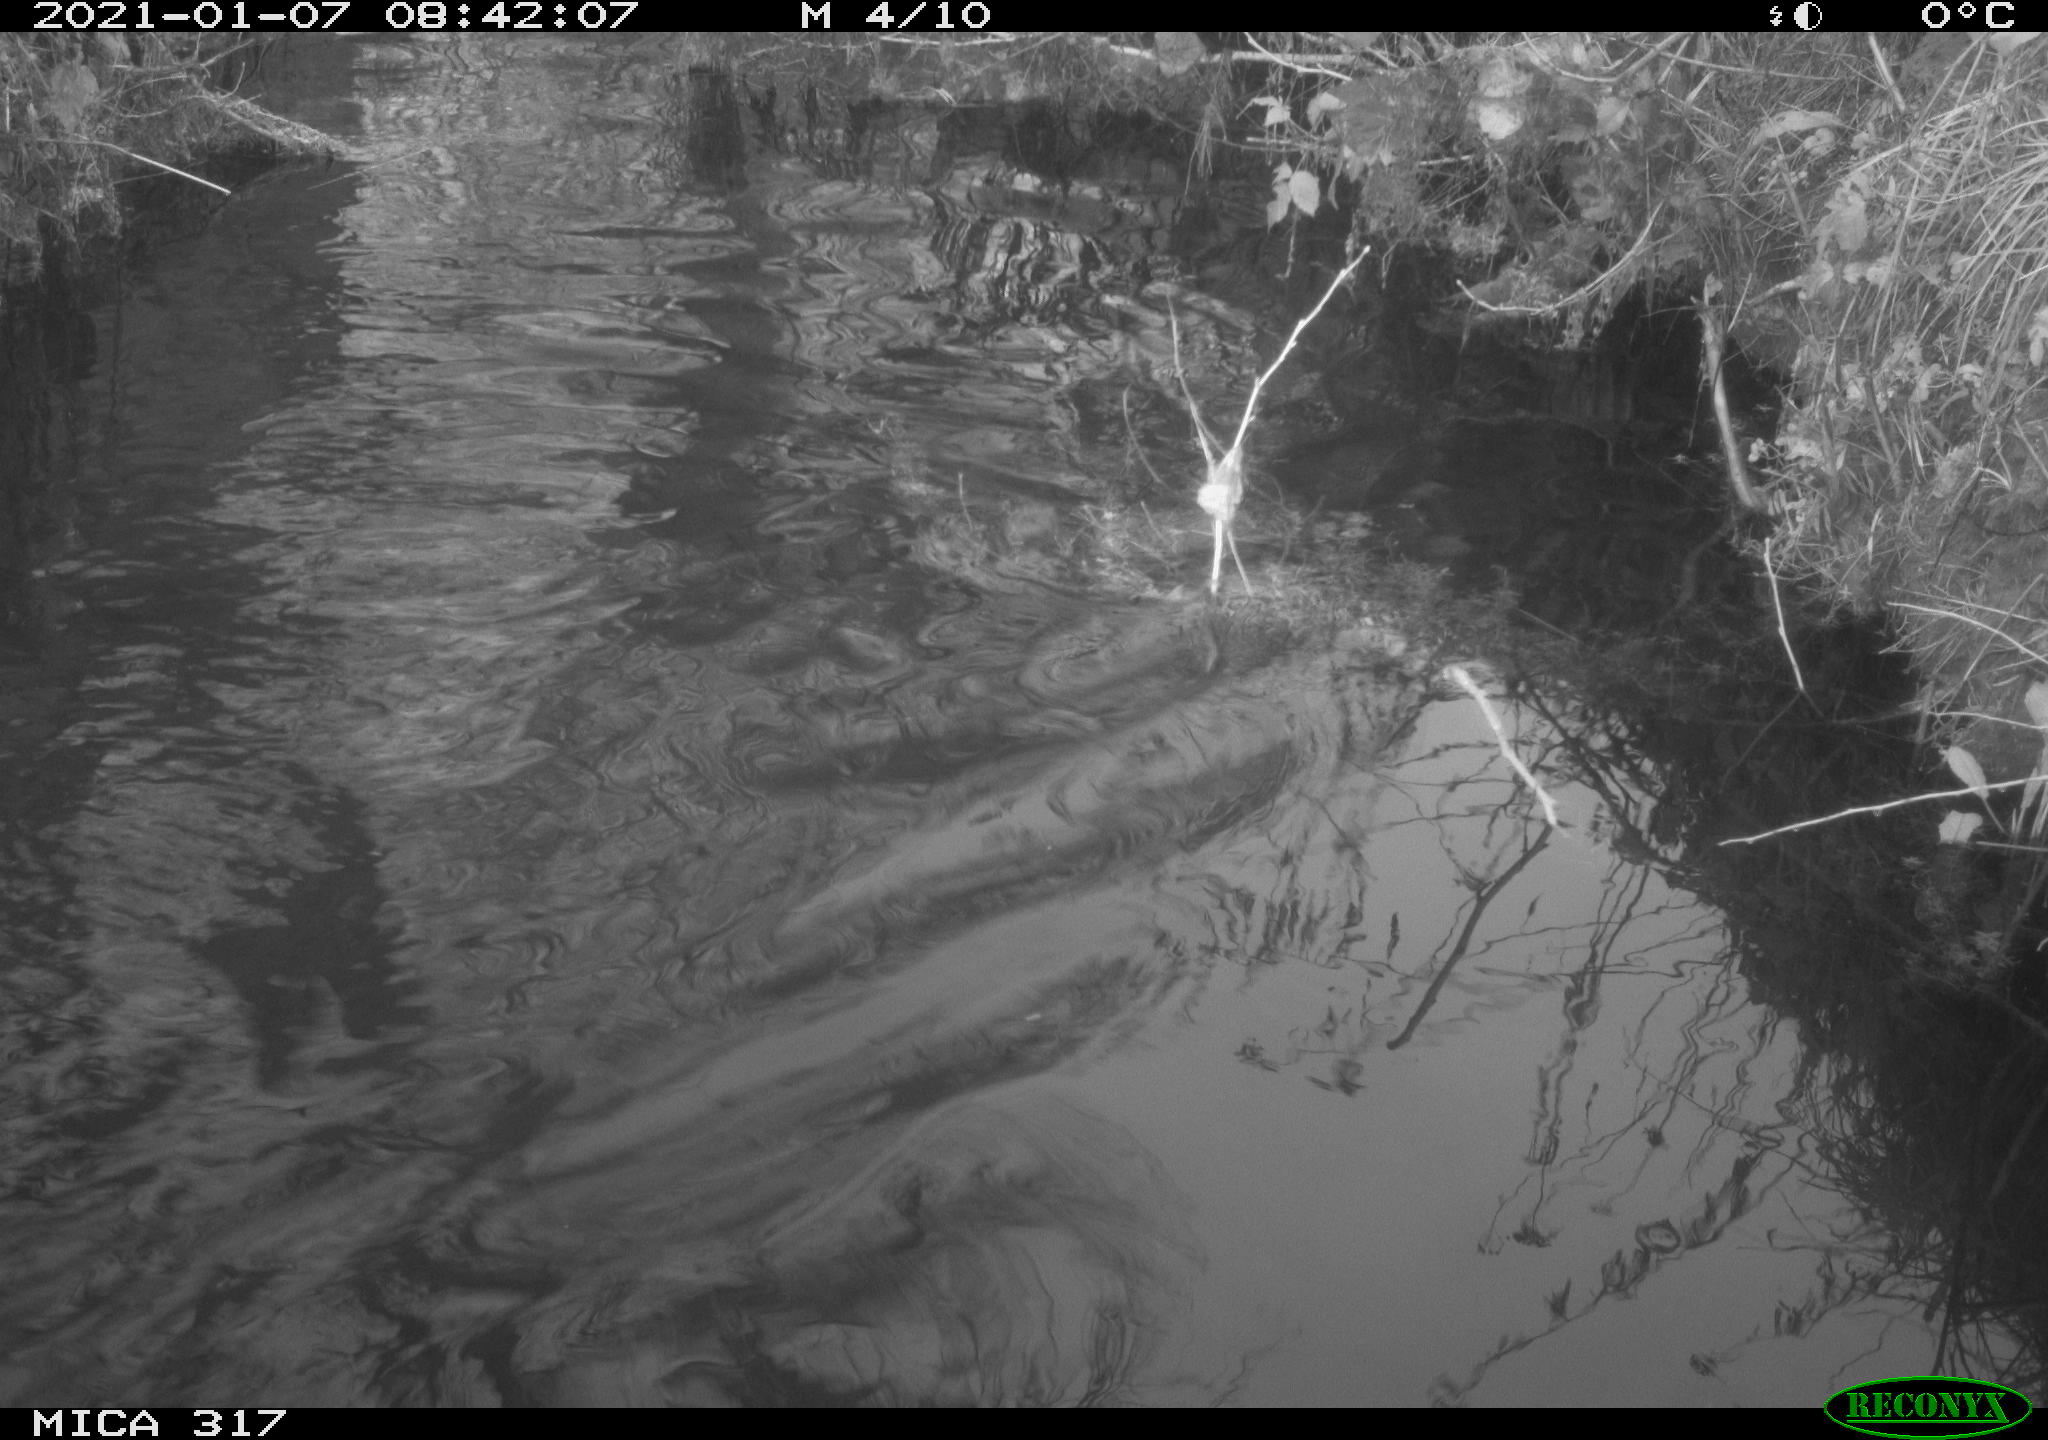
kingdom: Animalia
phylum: Chordata
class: Aves
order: Gruiformes
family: Rallidae
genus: Fulica
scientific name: Fulica atra
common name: Eurasian coot
